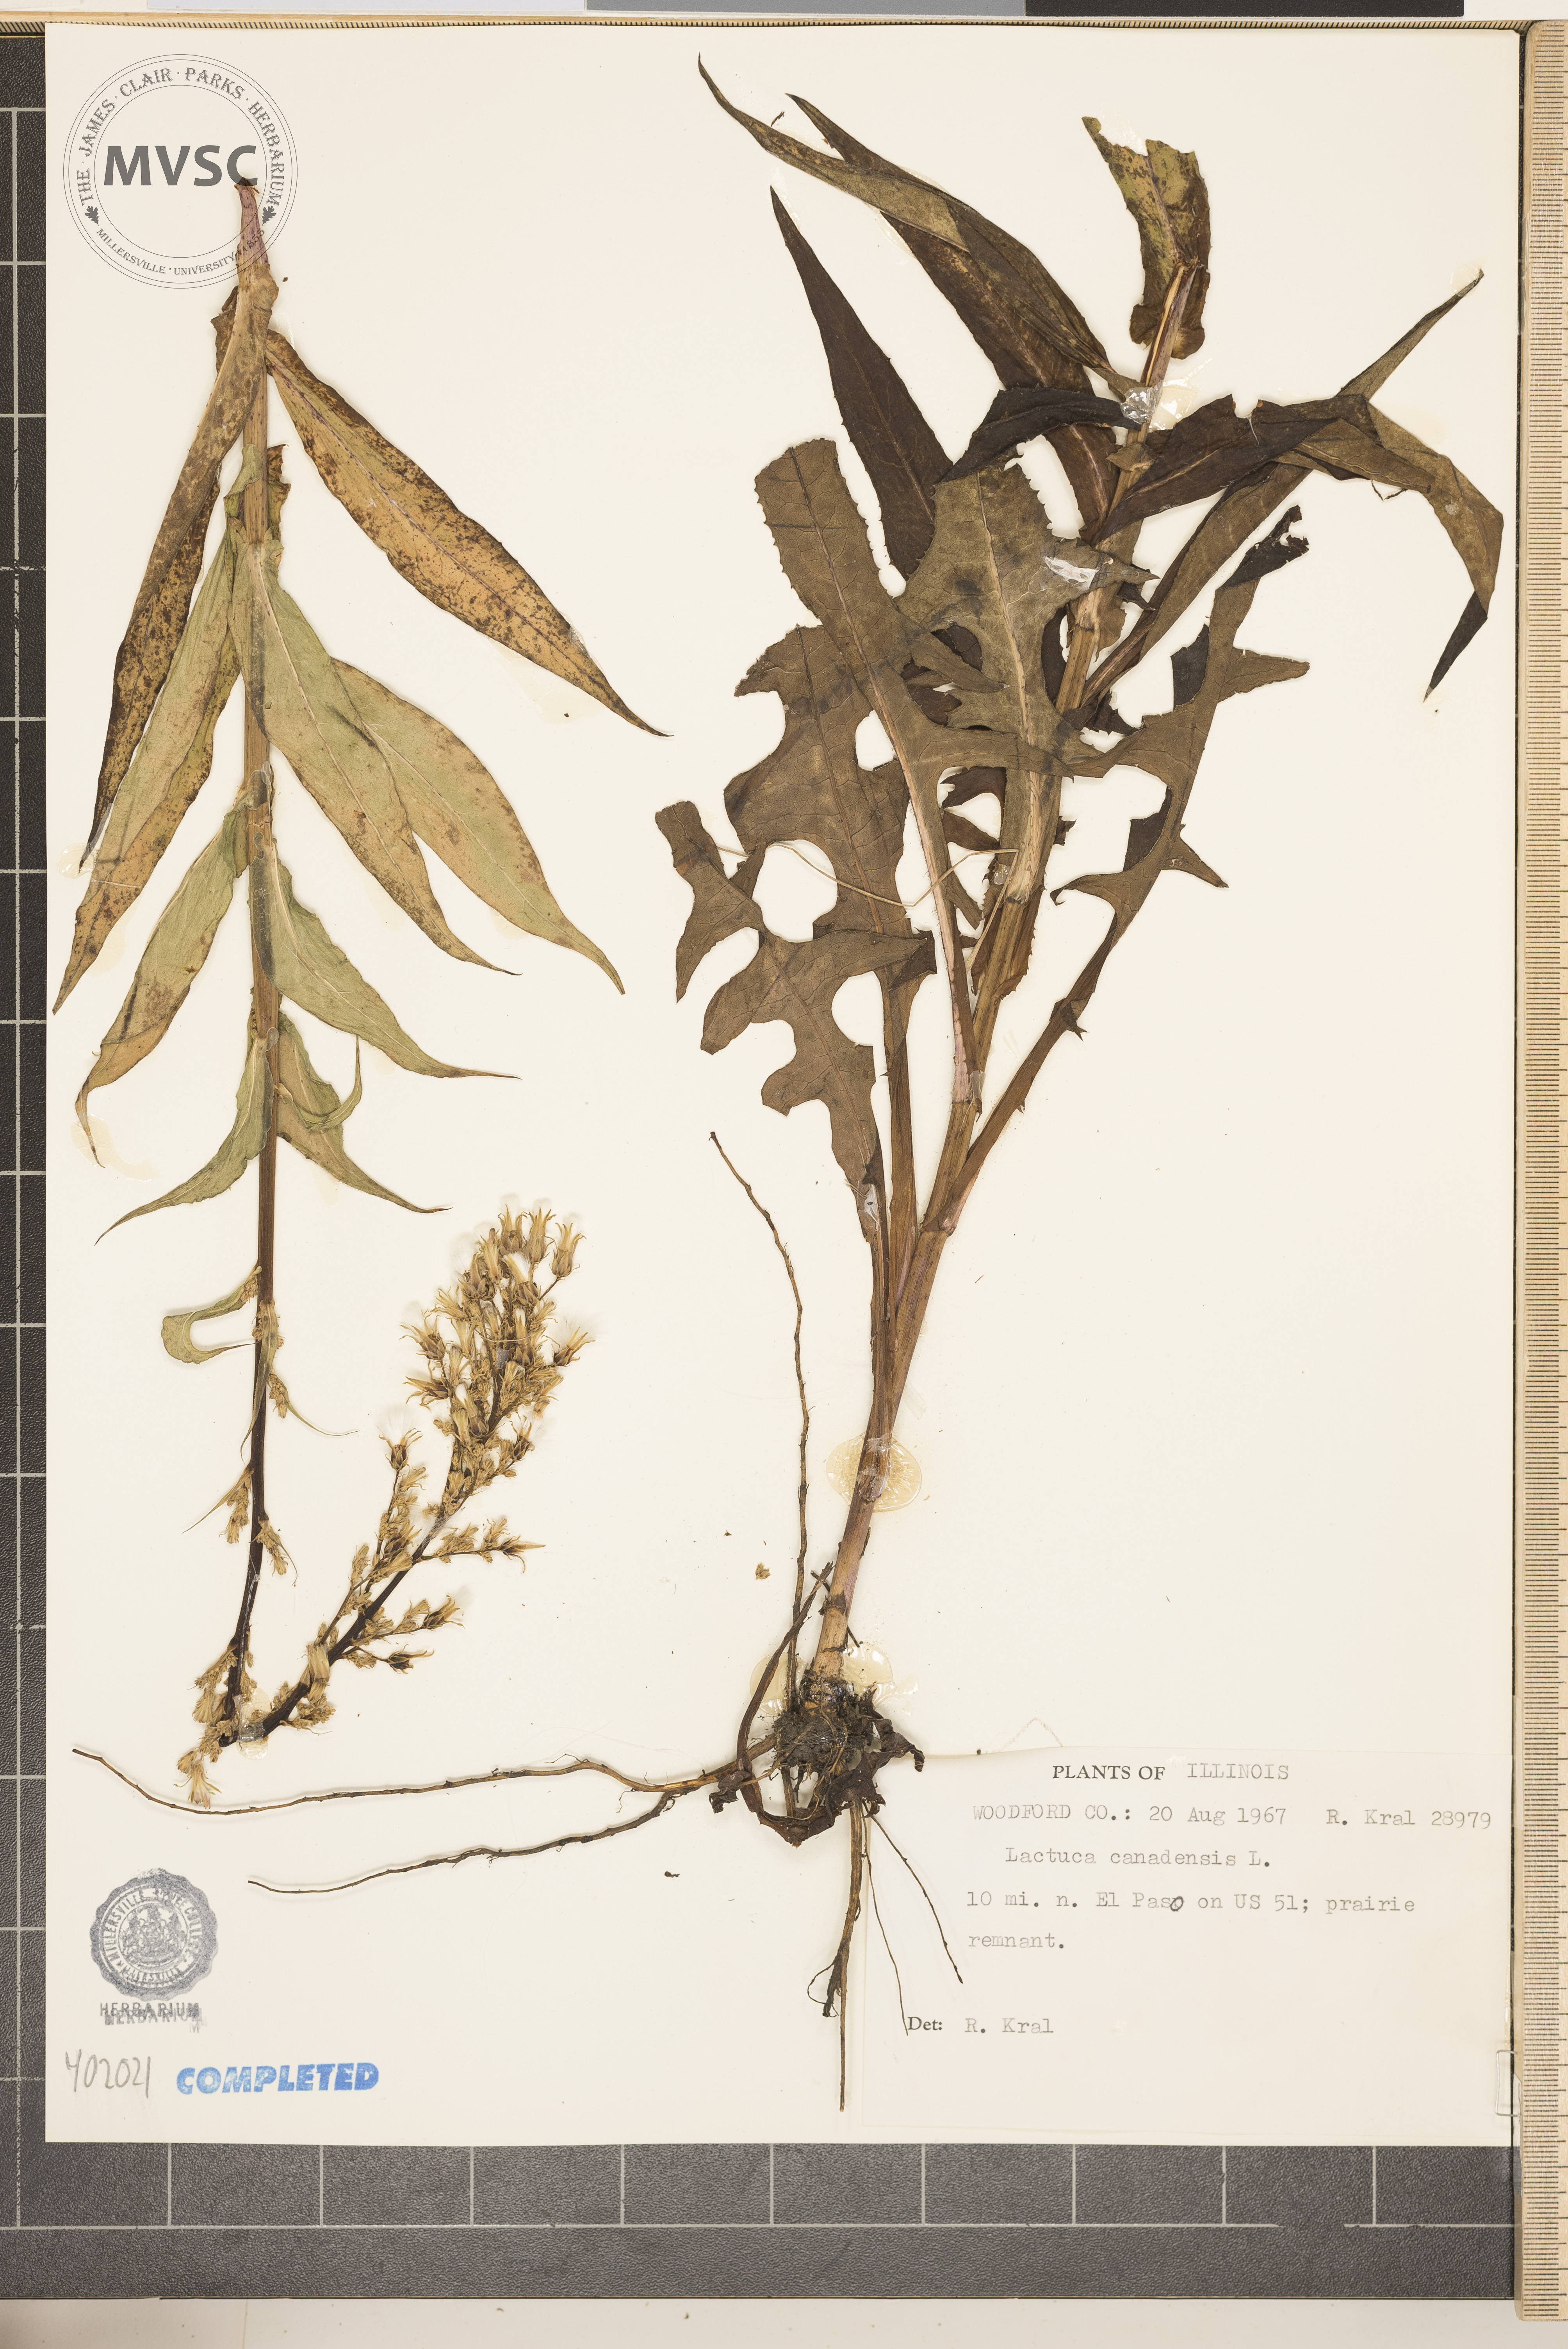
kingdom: Plantae
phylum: Tracheophyta
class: Magnoliopsida
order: Asterales
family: Asteraceae
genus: Lactuca
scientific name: Lactuca canadensis
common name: Wild lettuce
